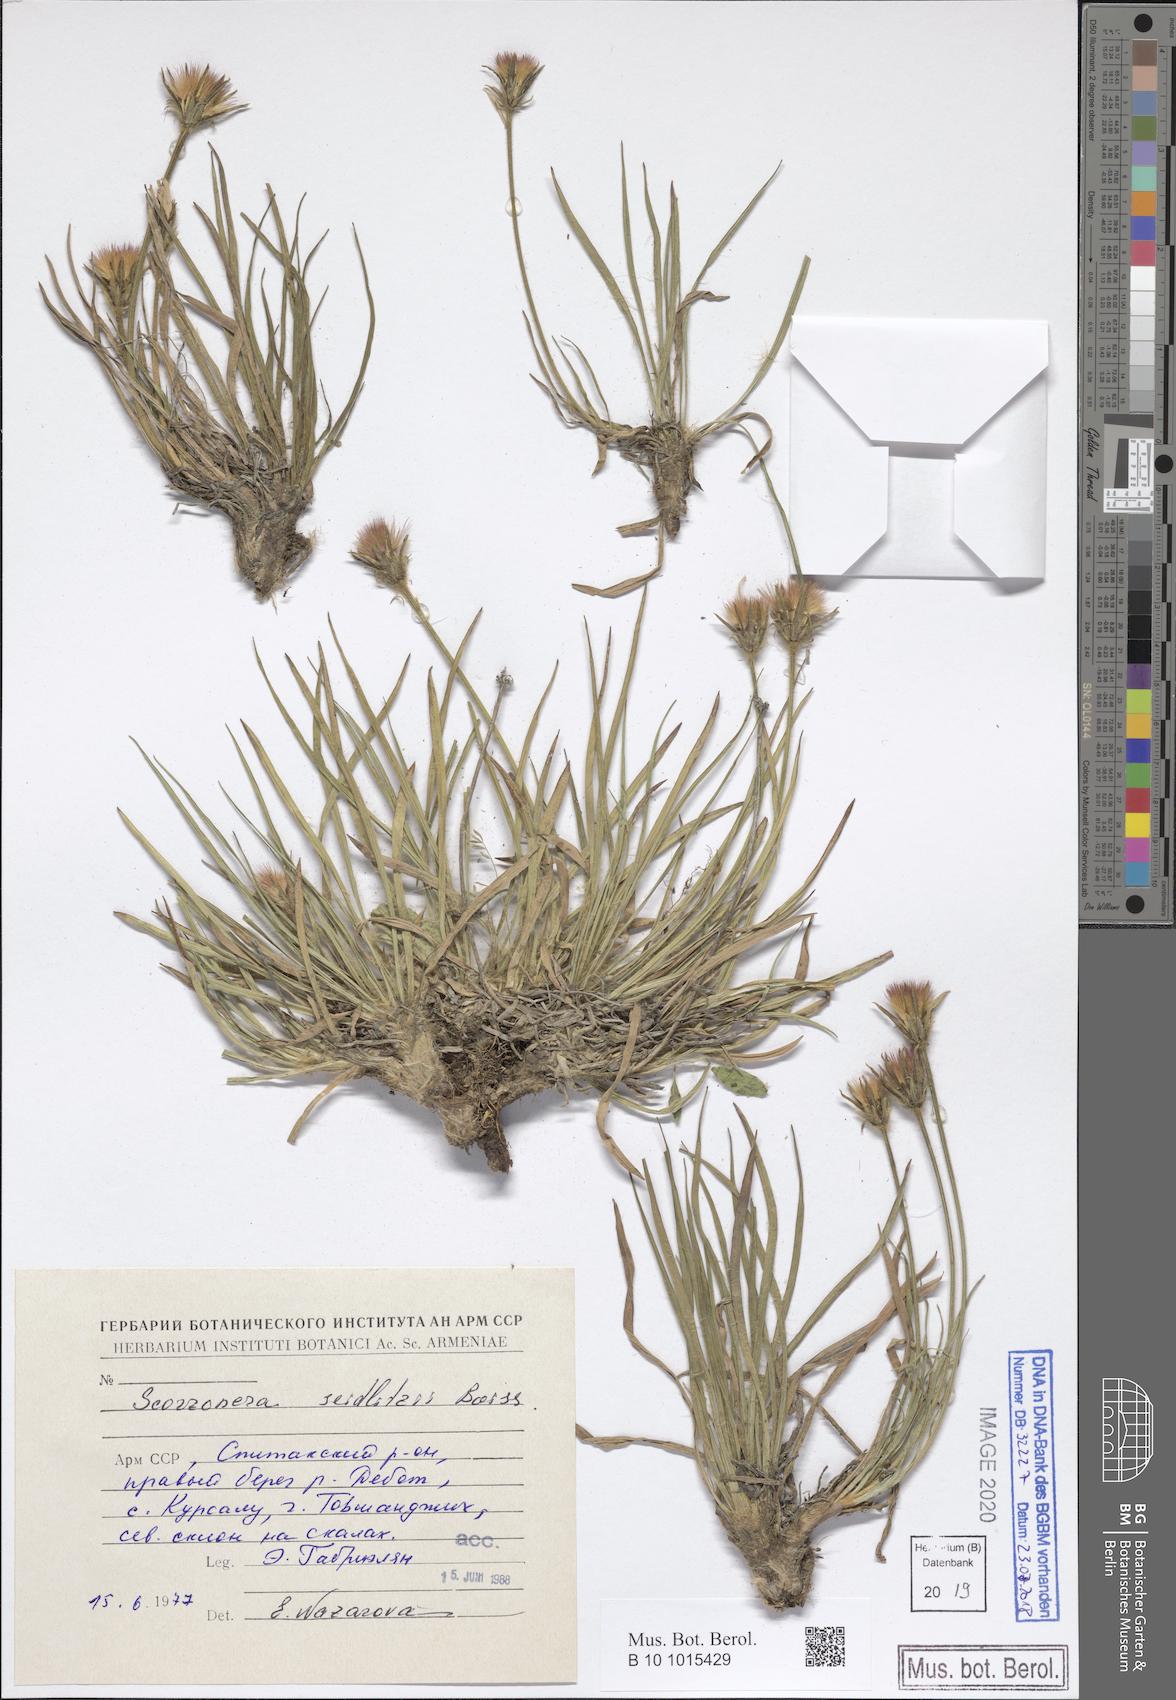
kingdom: Plantae
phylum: Tracheophyta
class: Magnoliopsida
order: Asterales
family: Asteraceae
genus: Goekyighitia
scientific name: Goekyighitia seidlitzii
